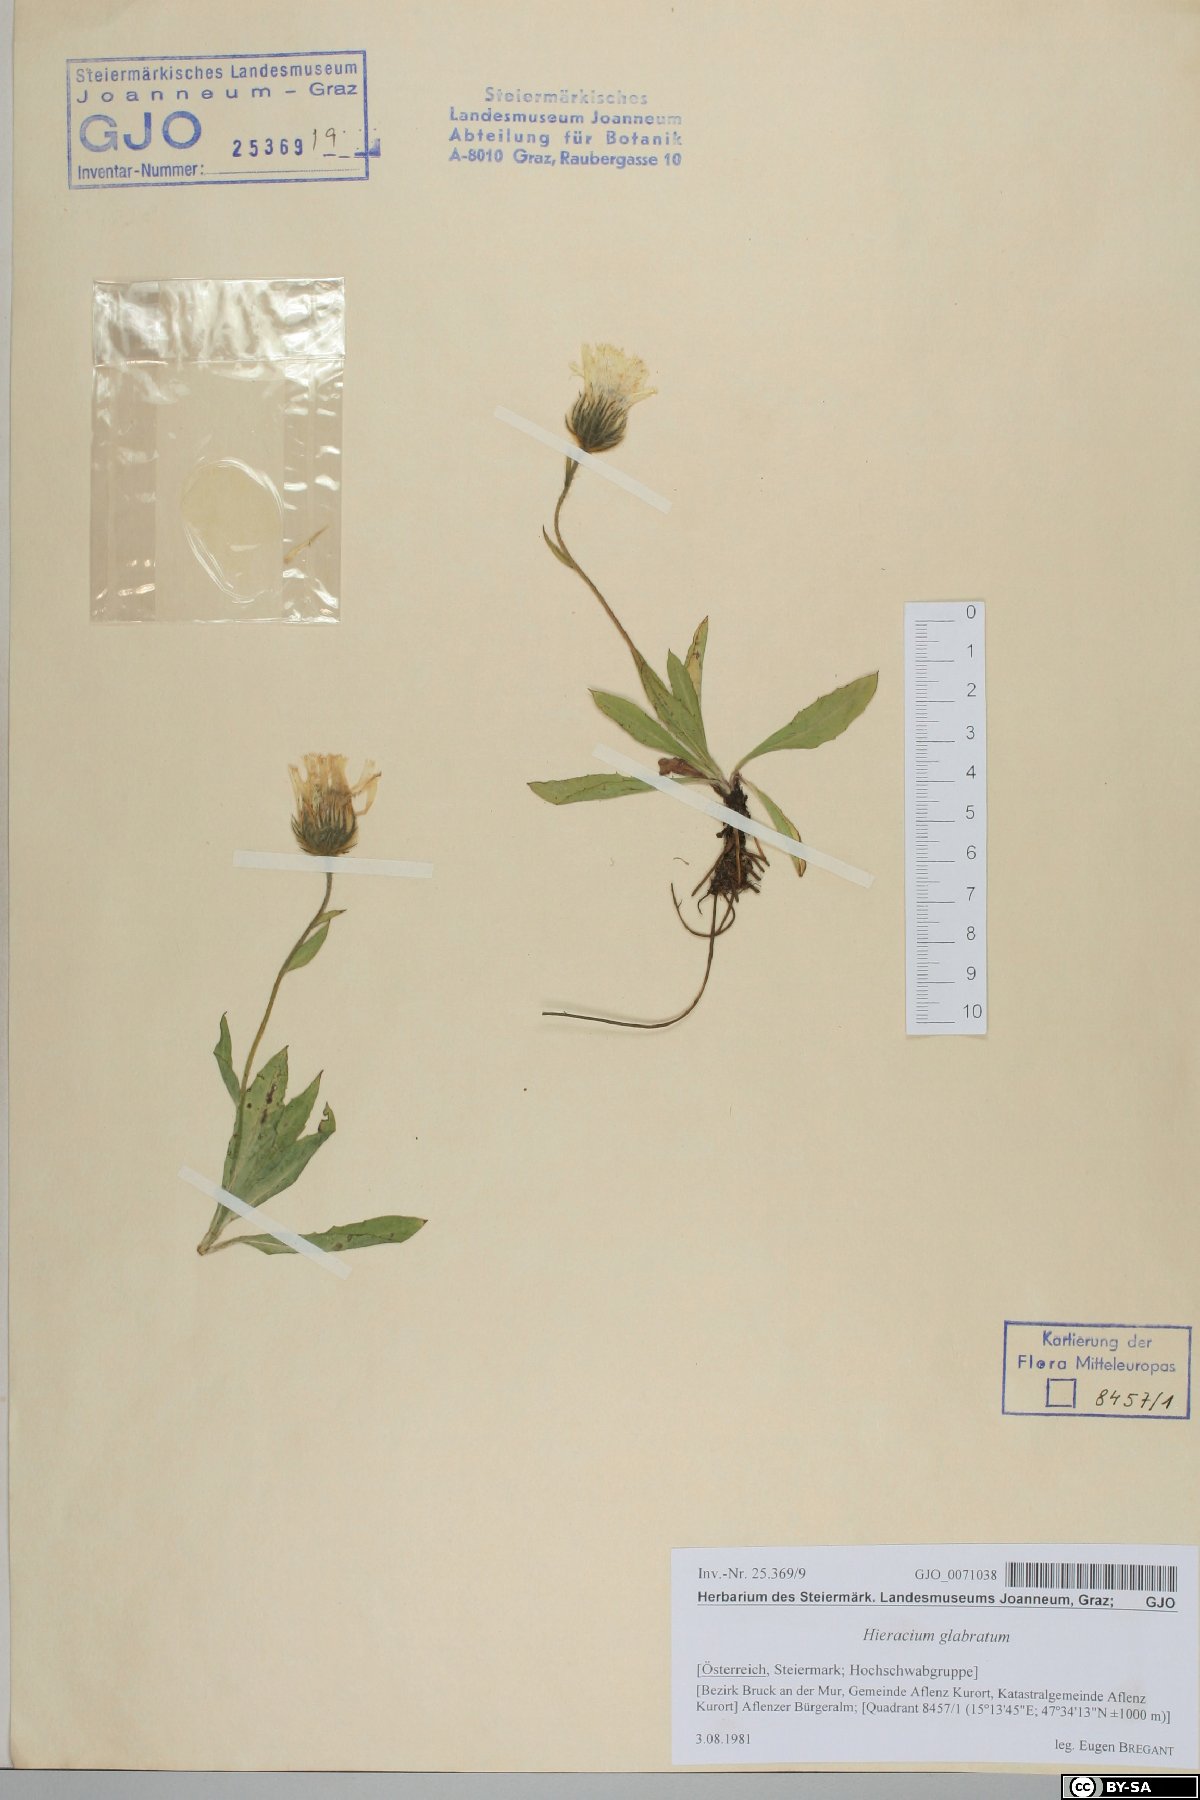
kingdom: Plantae
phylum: Tracheophyta
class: Magnoliopsida
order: Asterales
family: Asteraceae
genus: Hieracium
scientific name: Hieracium glabratum
